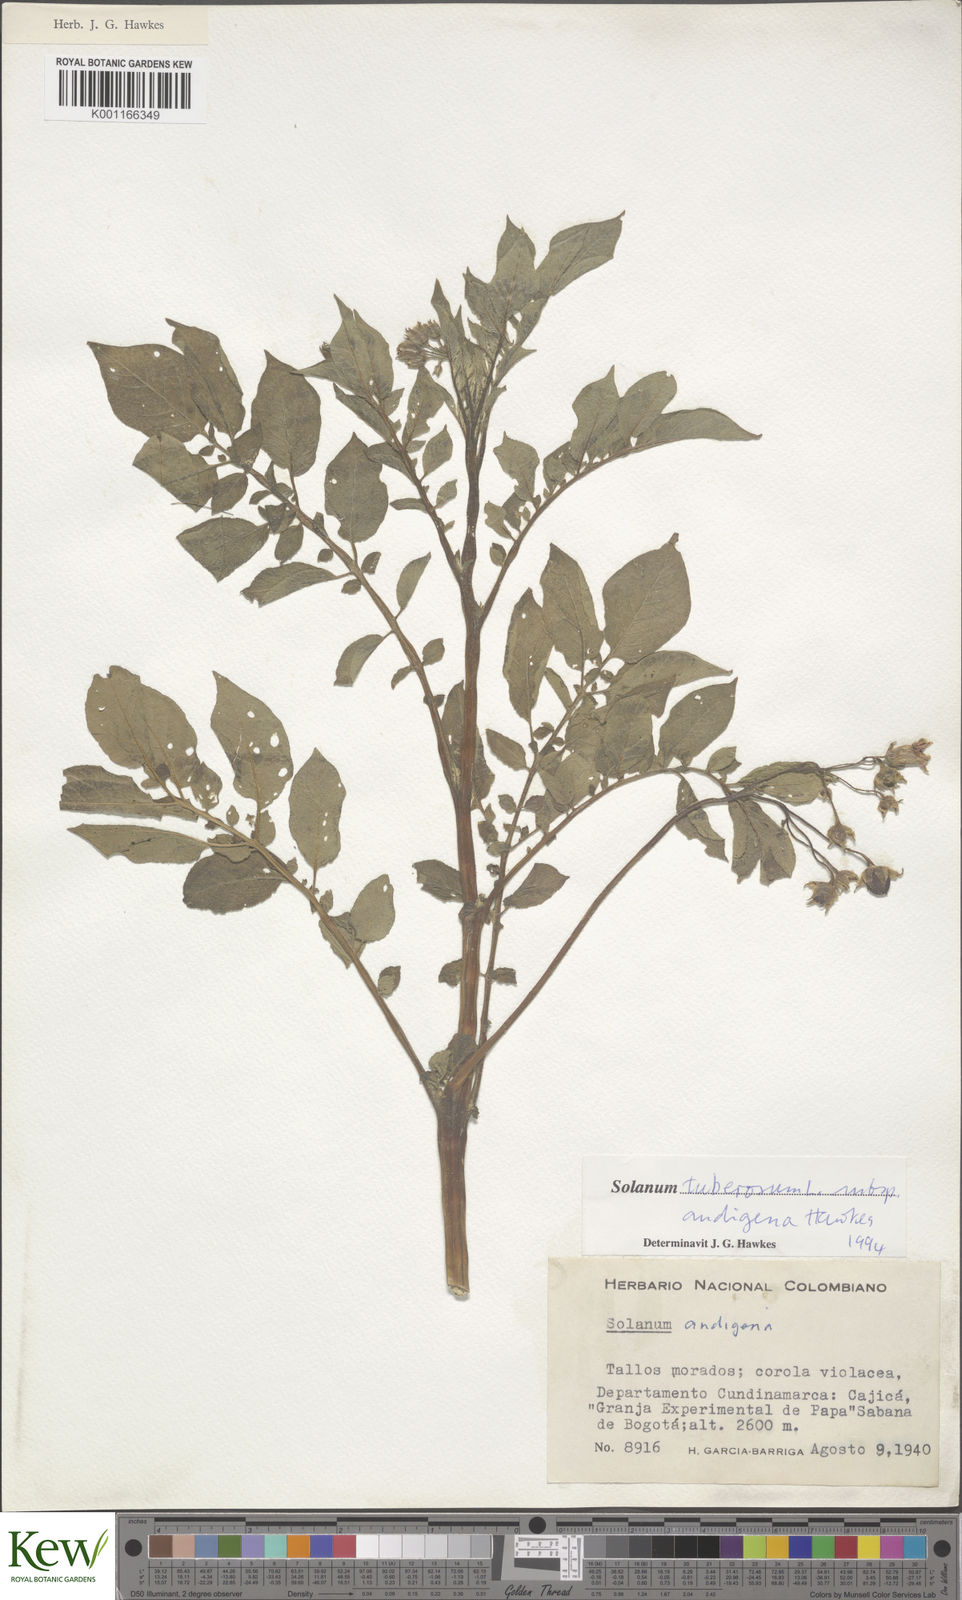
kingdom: Plantae
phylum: Tracheophyta
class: Magnoliopsida
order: Solanales
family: Solanaceae
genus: Solanum
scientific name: Solanum tuberosum
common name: Potato
